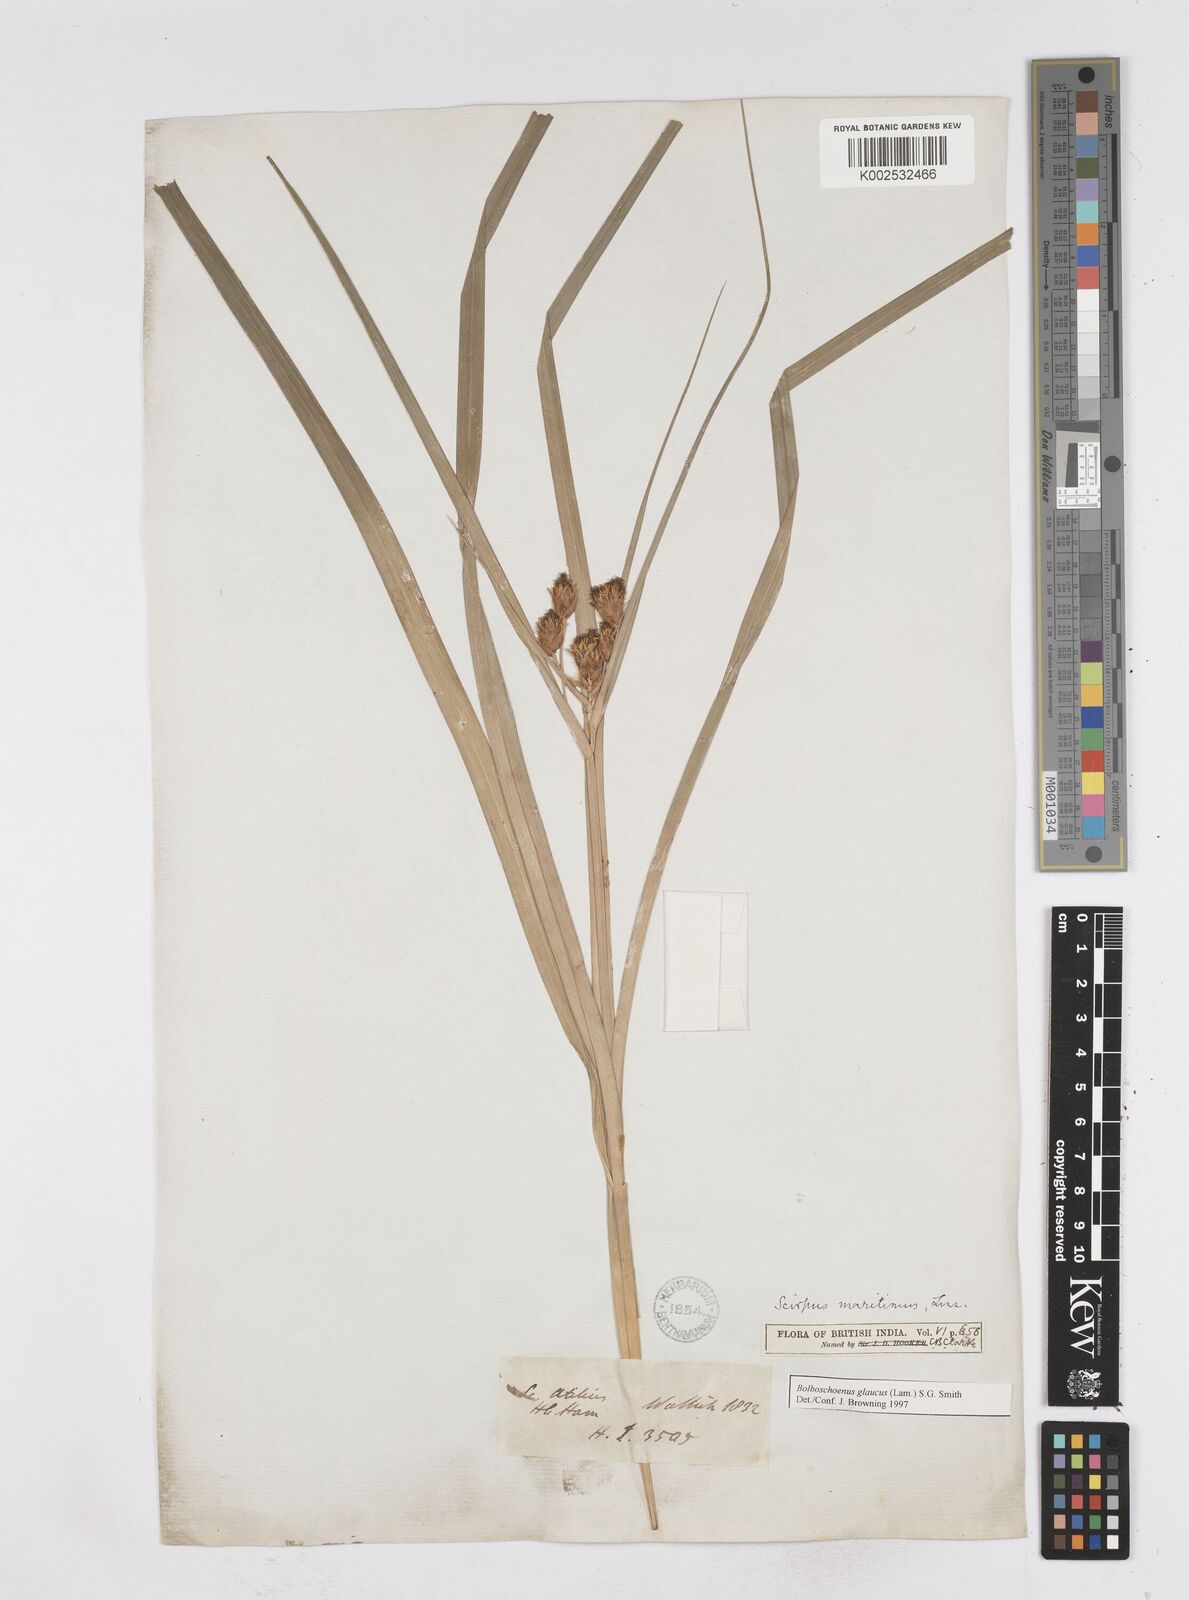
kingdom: Plantae
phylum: Tracheophyta
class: Liliopsida
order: Poales
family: Cyperaceae
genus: Bolboschoenus
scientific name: Bolboschoenus maritimus
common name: Sea club-rush
